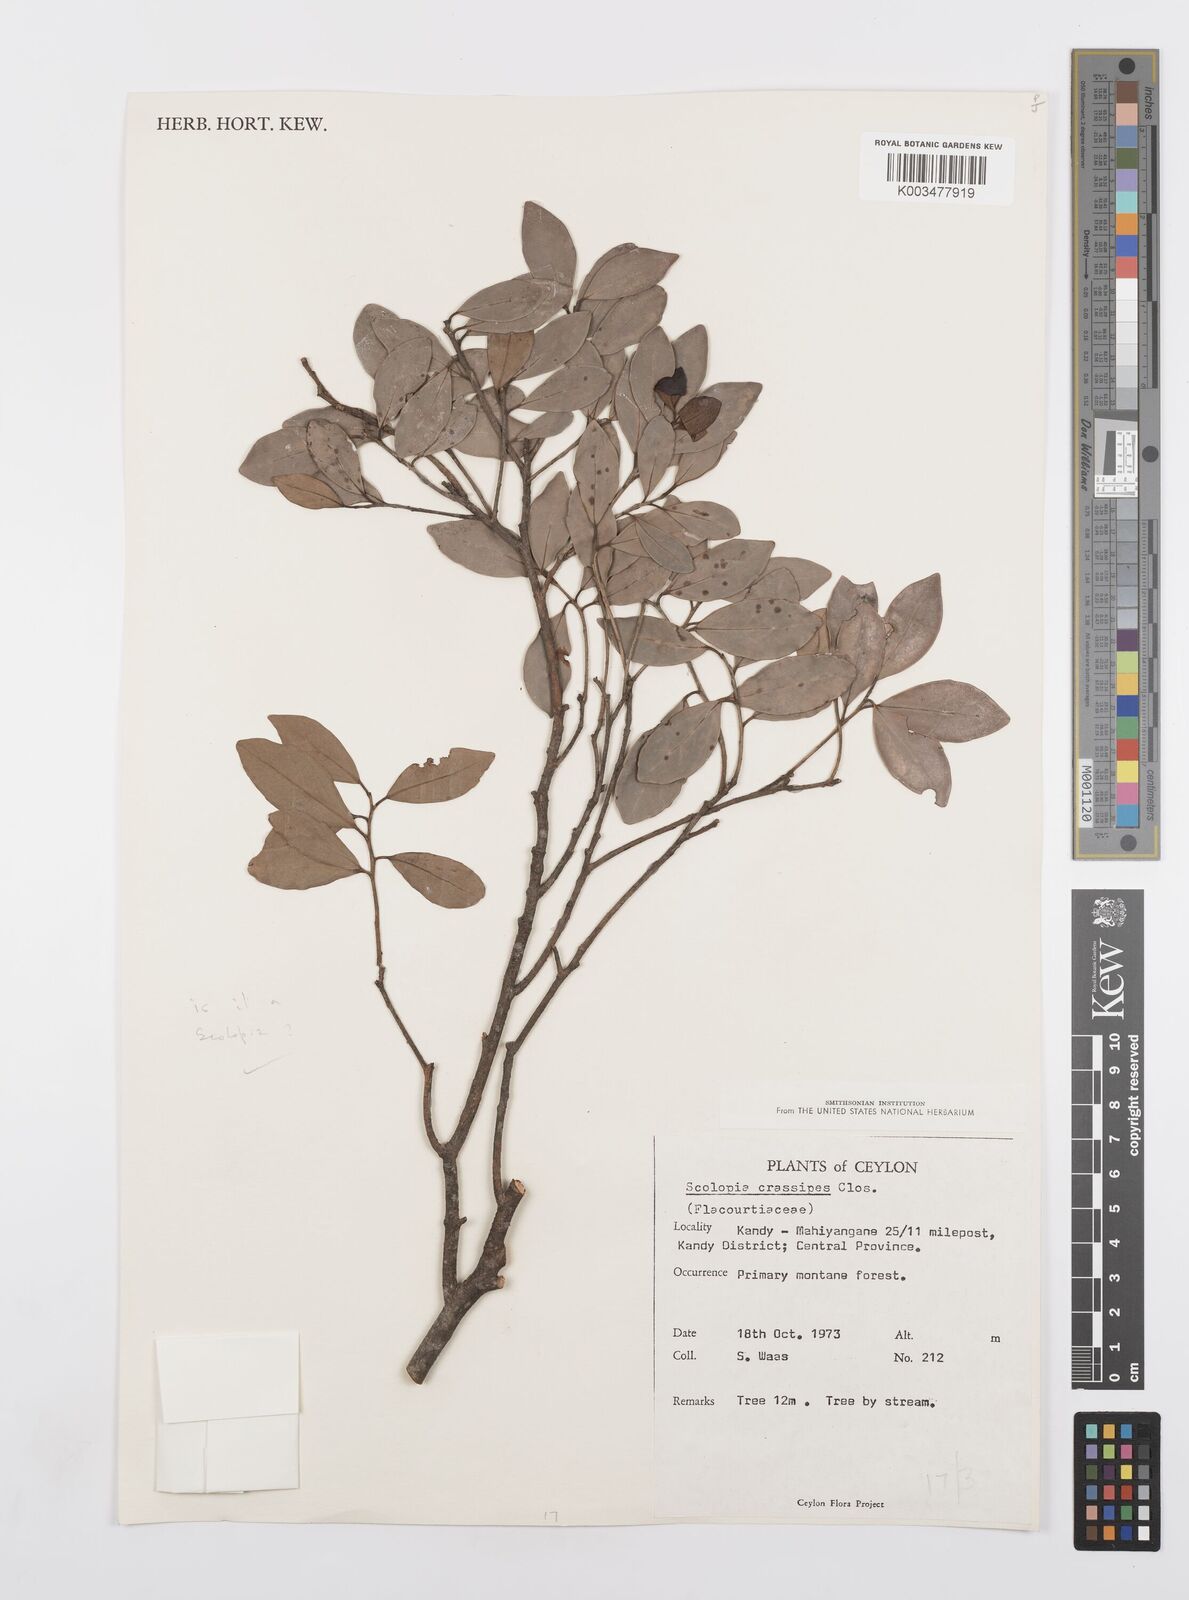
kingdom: Plantae
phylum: Tracheophyta
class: Magnoliopsida
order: Malpighiales
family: Salicaceae
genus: Scolopia
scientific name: Scolopia crassipes
